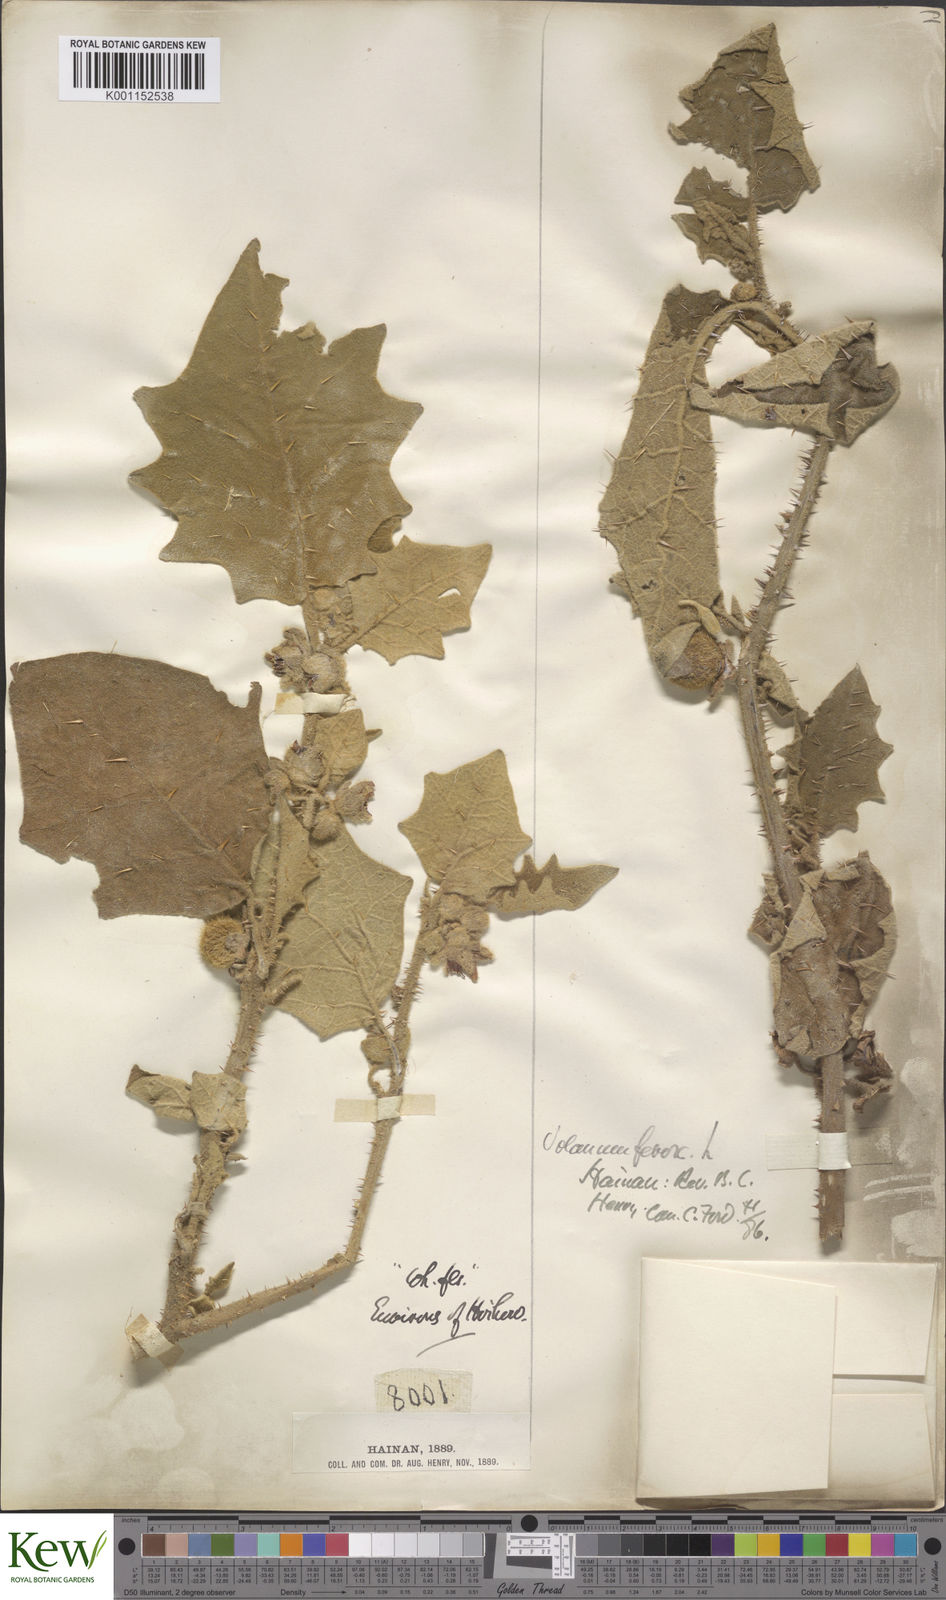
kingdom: Plantae
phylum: Tracheophyta
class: Magnoliopsida
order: Solanales
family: Solanaceae
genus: Solanum
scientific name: Solanum lasiocarpum
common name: Indian nightshade
